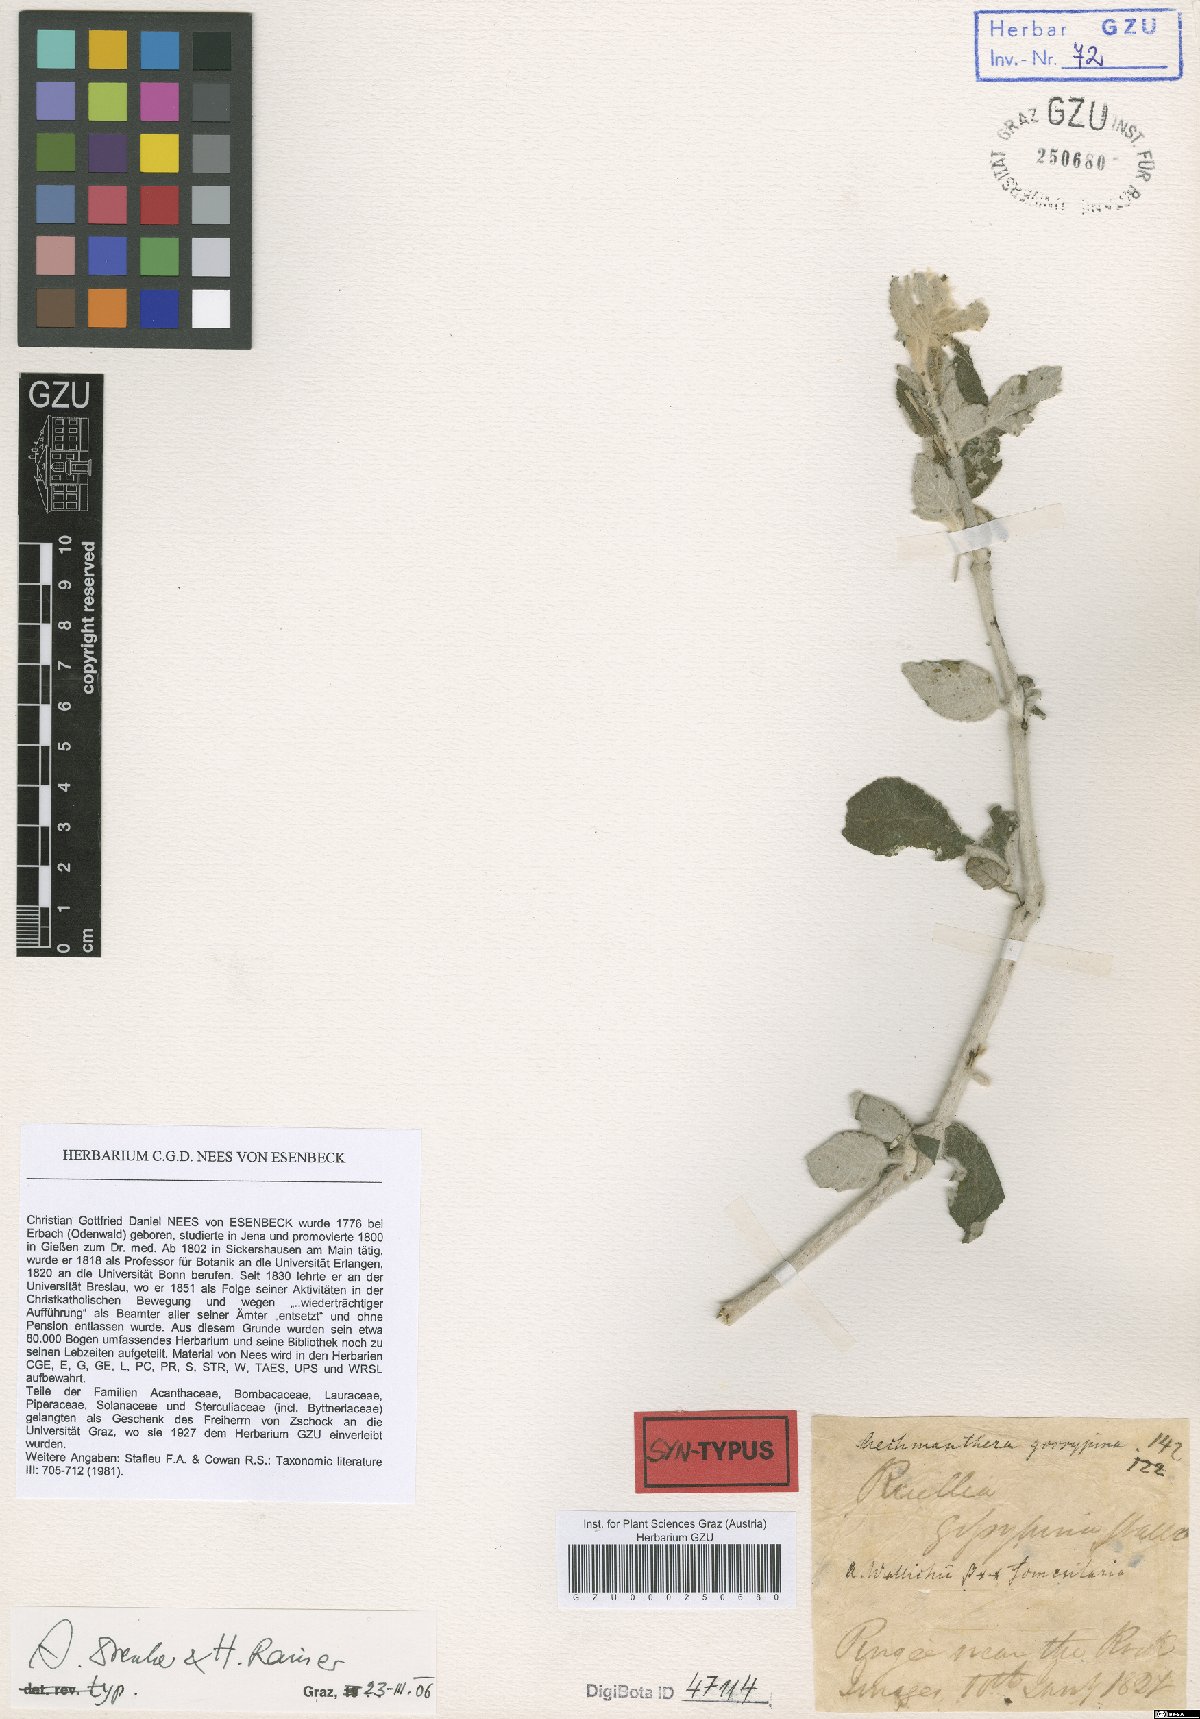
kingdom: Plantae
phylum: Tracheophyta
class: Magnoliopsida
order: Lamiales
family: Acanthaceae
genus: Strobilanthes
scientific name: Strobilanthes tomentosa
